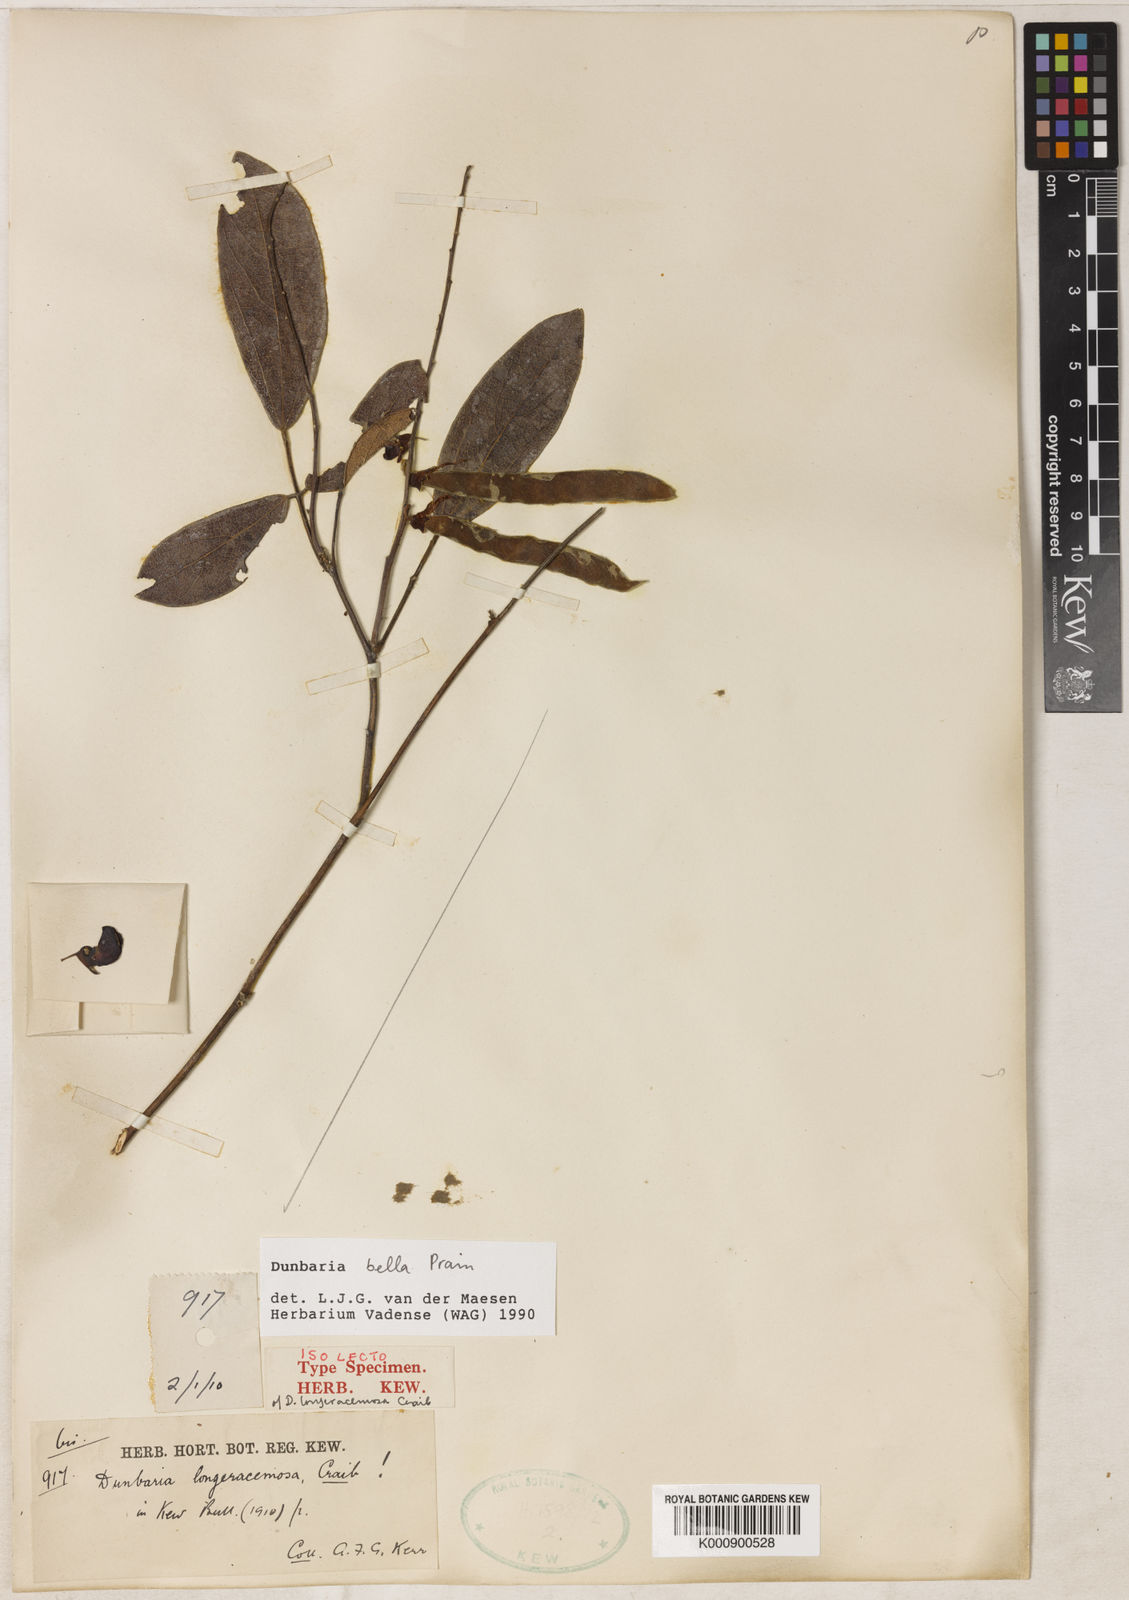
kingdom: Plantae
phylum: Tracheophyta
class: Magnoliopsida
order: Fabales
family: Fabaceae
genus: Dunbaria
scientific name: Dunbaria bella
